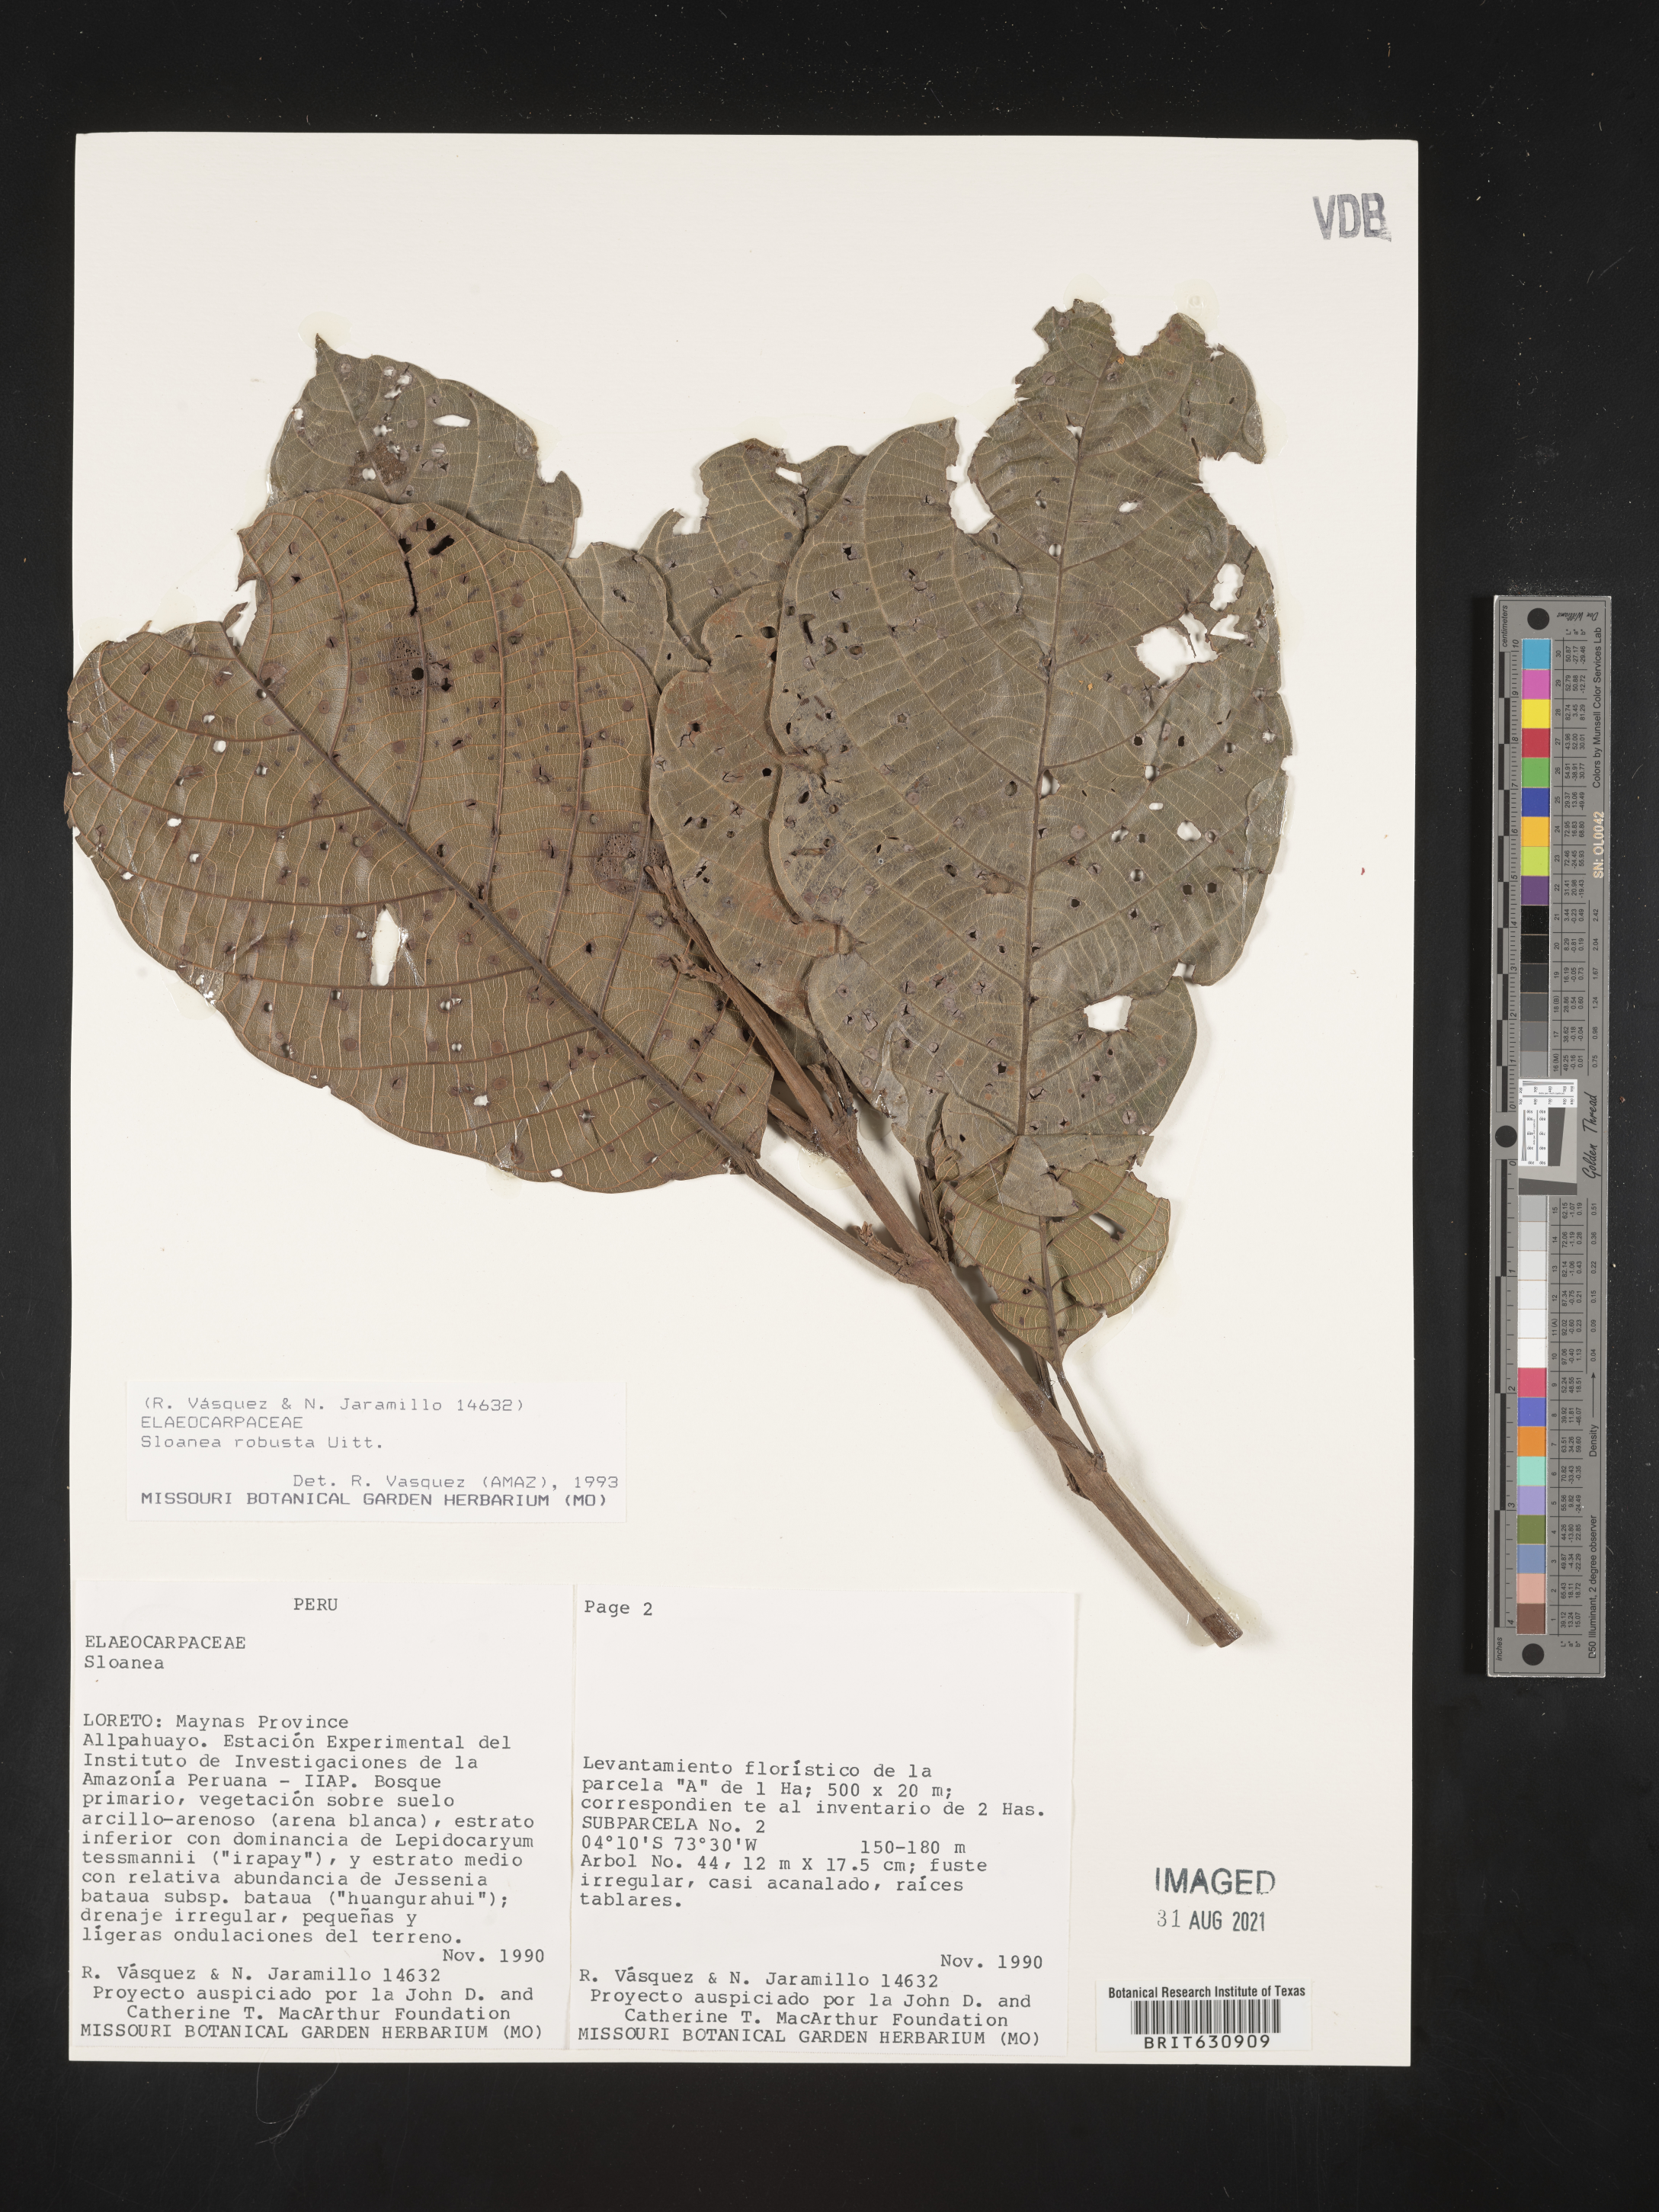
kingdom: Plantae
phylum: Tracheophyta
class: Magnoliopsida
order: Oxalidales
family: Elaeocarpaceae
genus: Sloanea
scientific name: Sloanea
